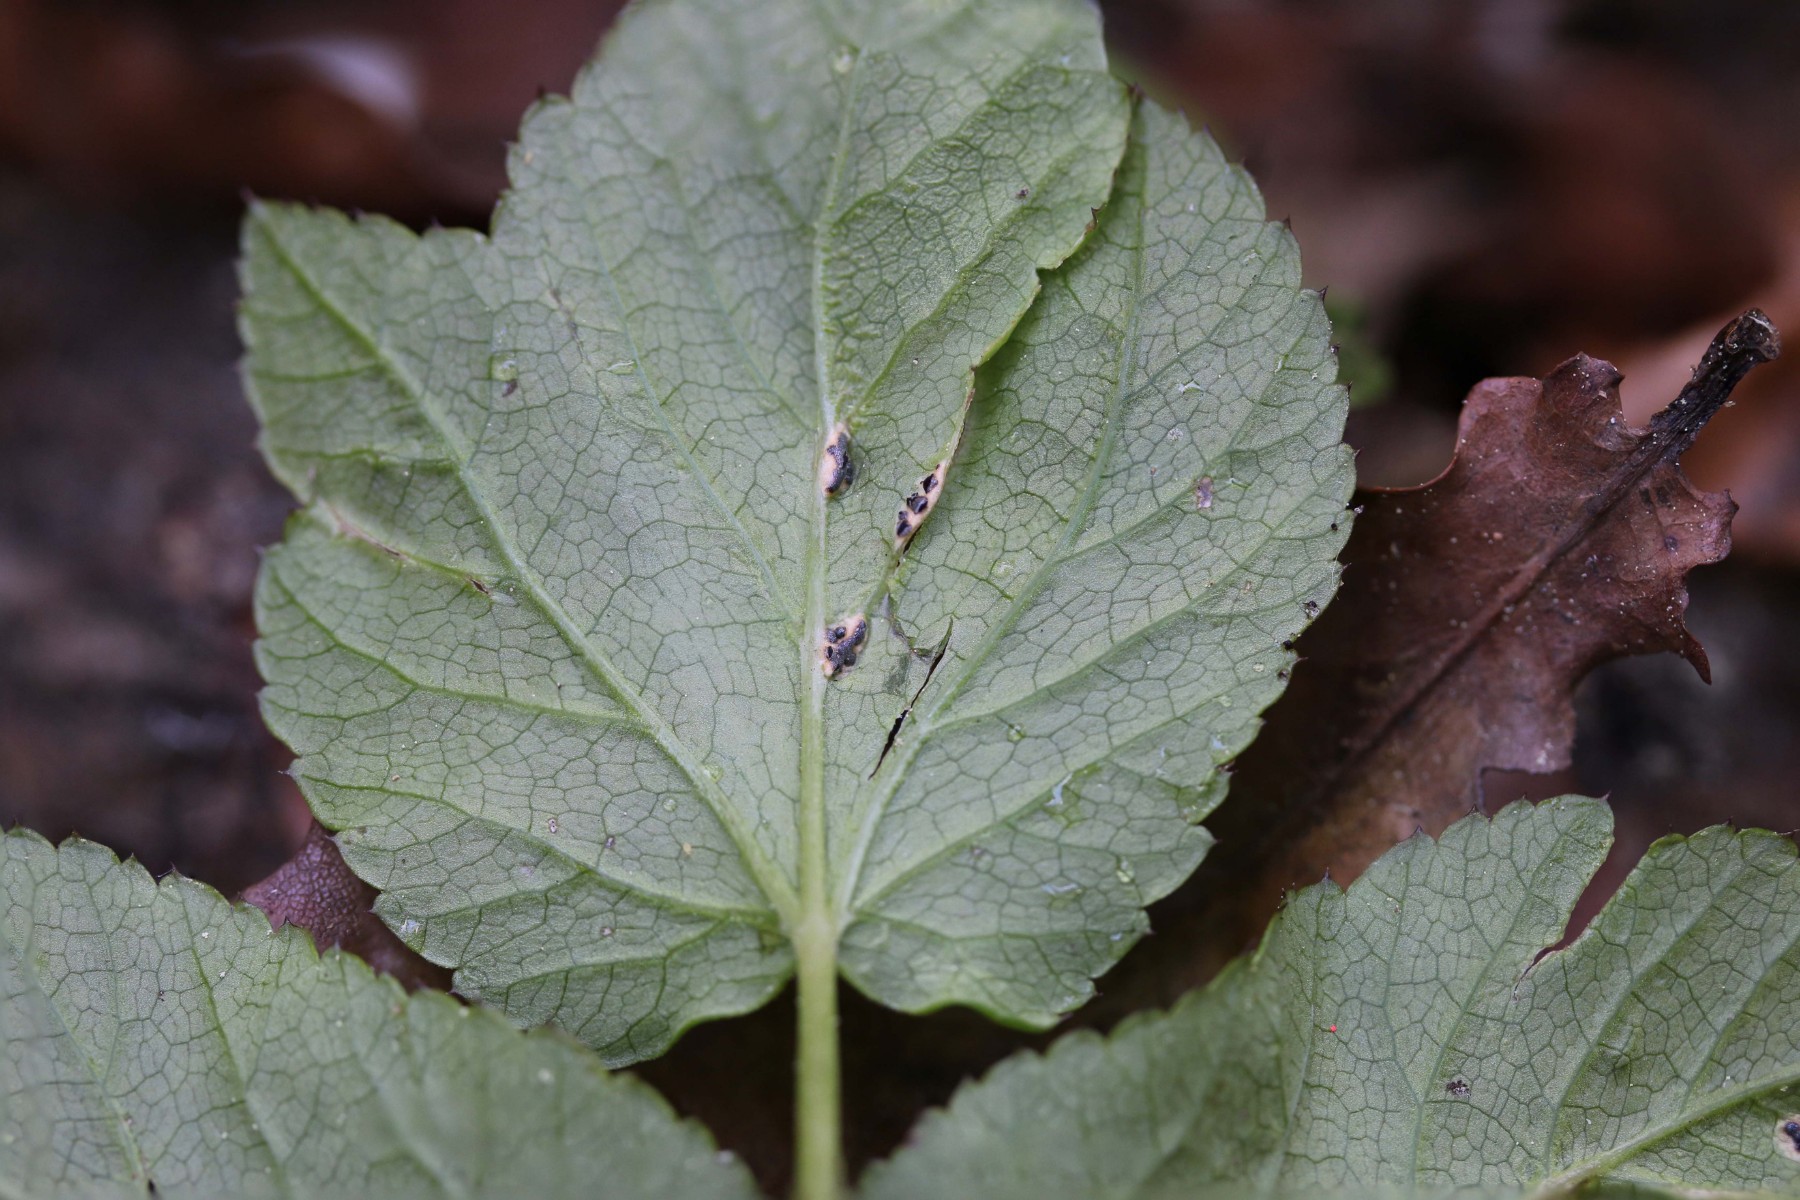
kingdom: Fungi
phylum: Basidiomycota
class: Pucciniomycetes
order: Pucciniales
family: Pucciniaceae
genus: Puccinia
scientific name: Puccinia
